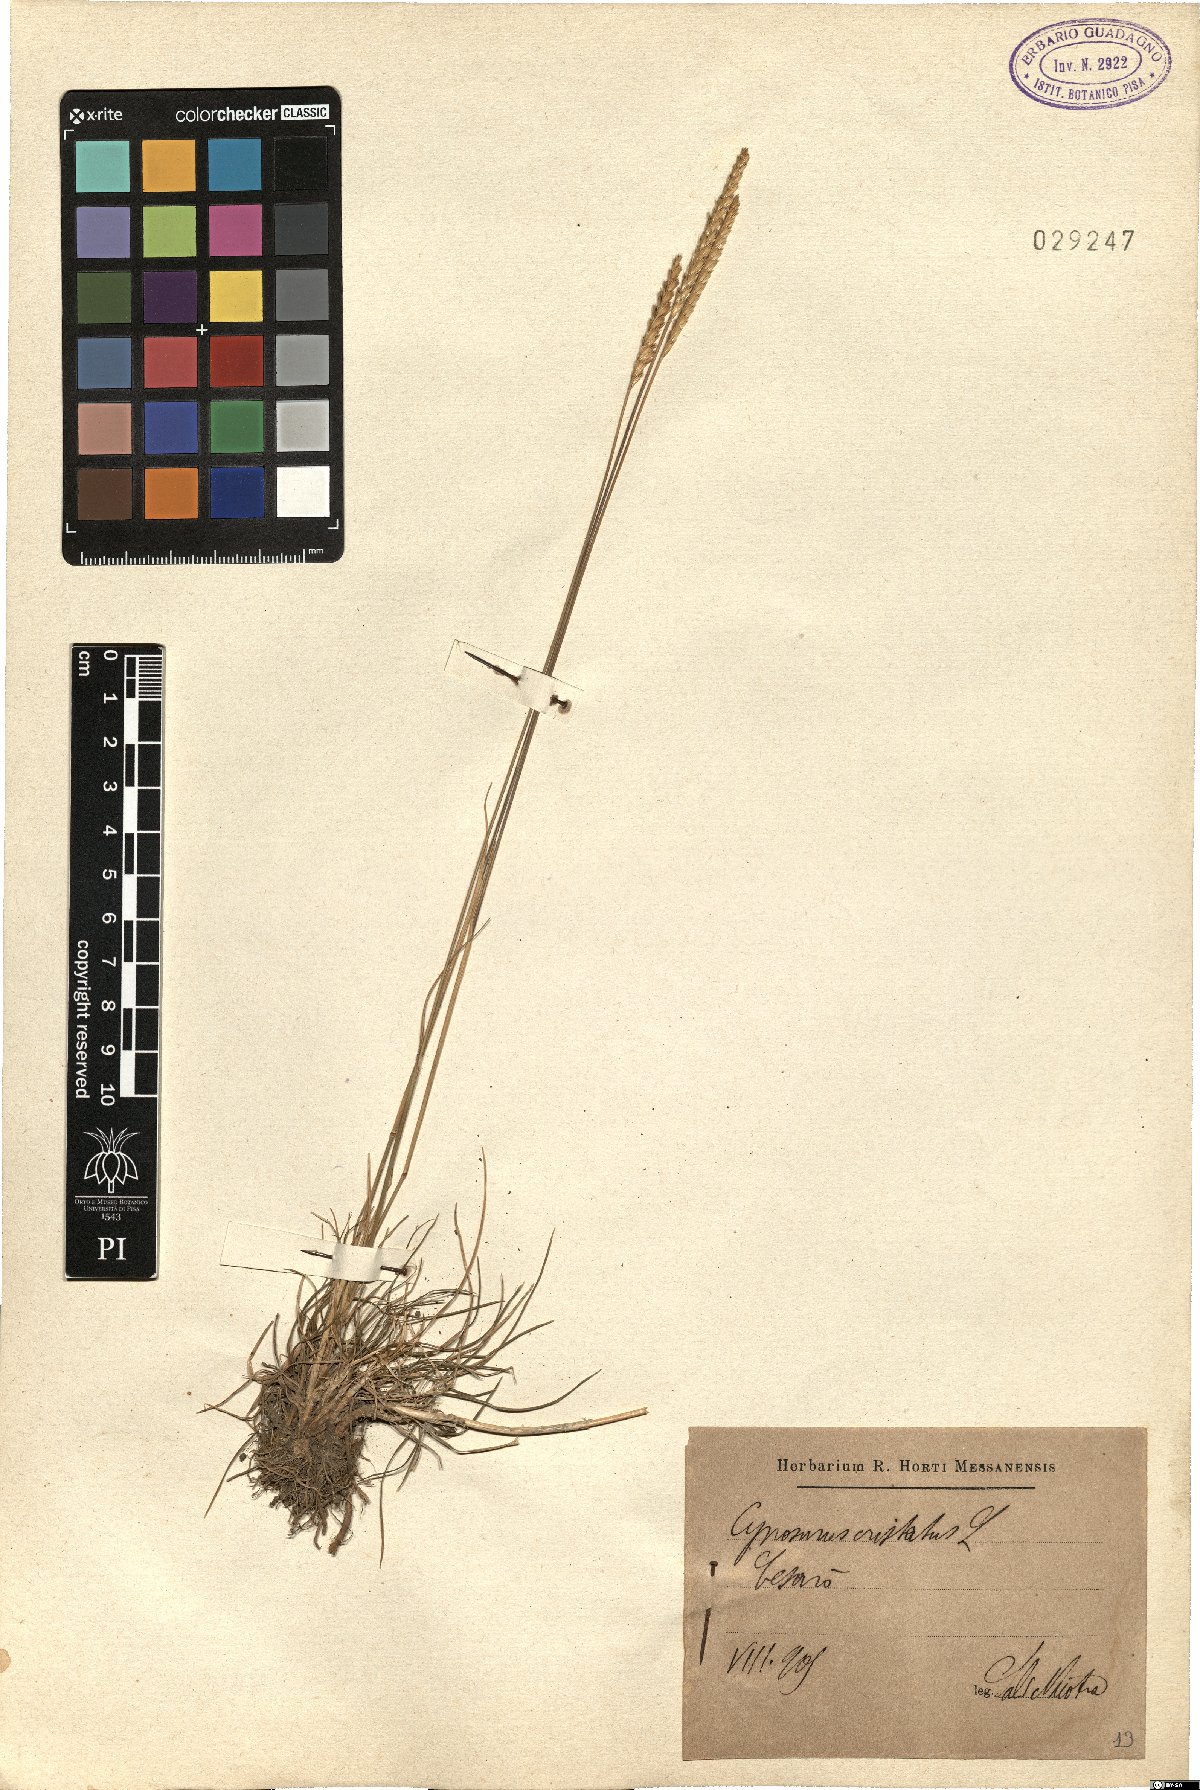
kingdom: Plantae
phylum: Tracheophyta
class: Liliopsida
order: Poales
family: Poaceae
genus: Cynosurus
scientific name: Cynosurus cristatus
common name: Crested dog's-tail
